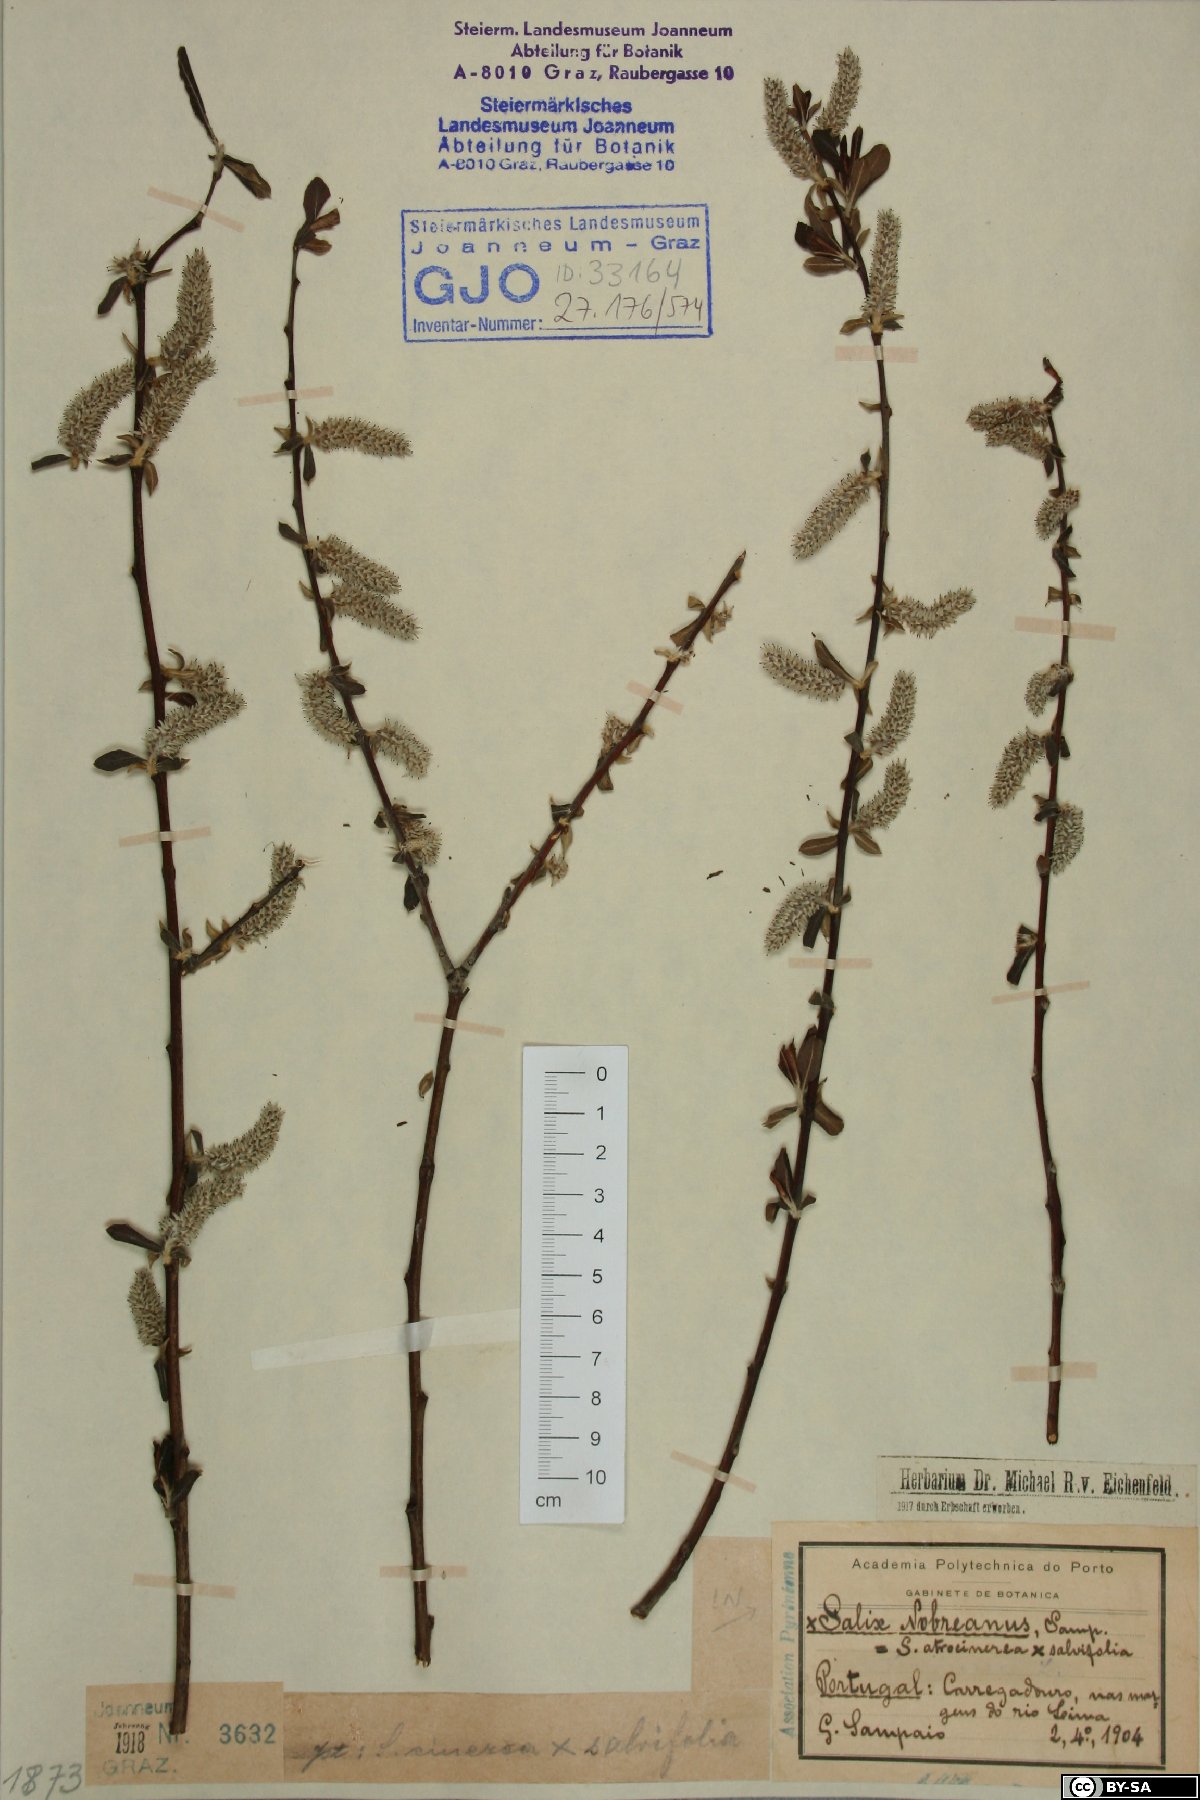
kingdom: Plantae
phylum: Tracheophyta
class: Magnoliopsida
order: Malpighiales
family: Salicaceae
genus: Salix
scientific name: Salix nobrei
